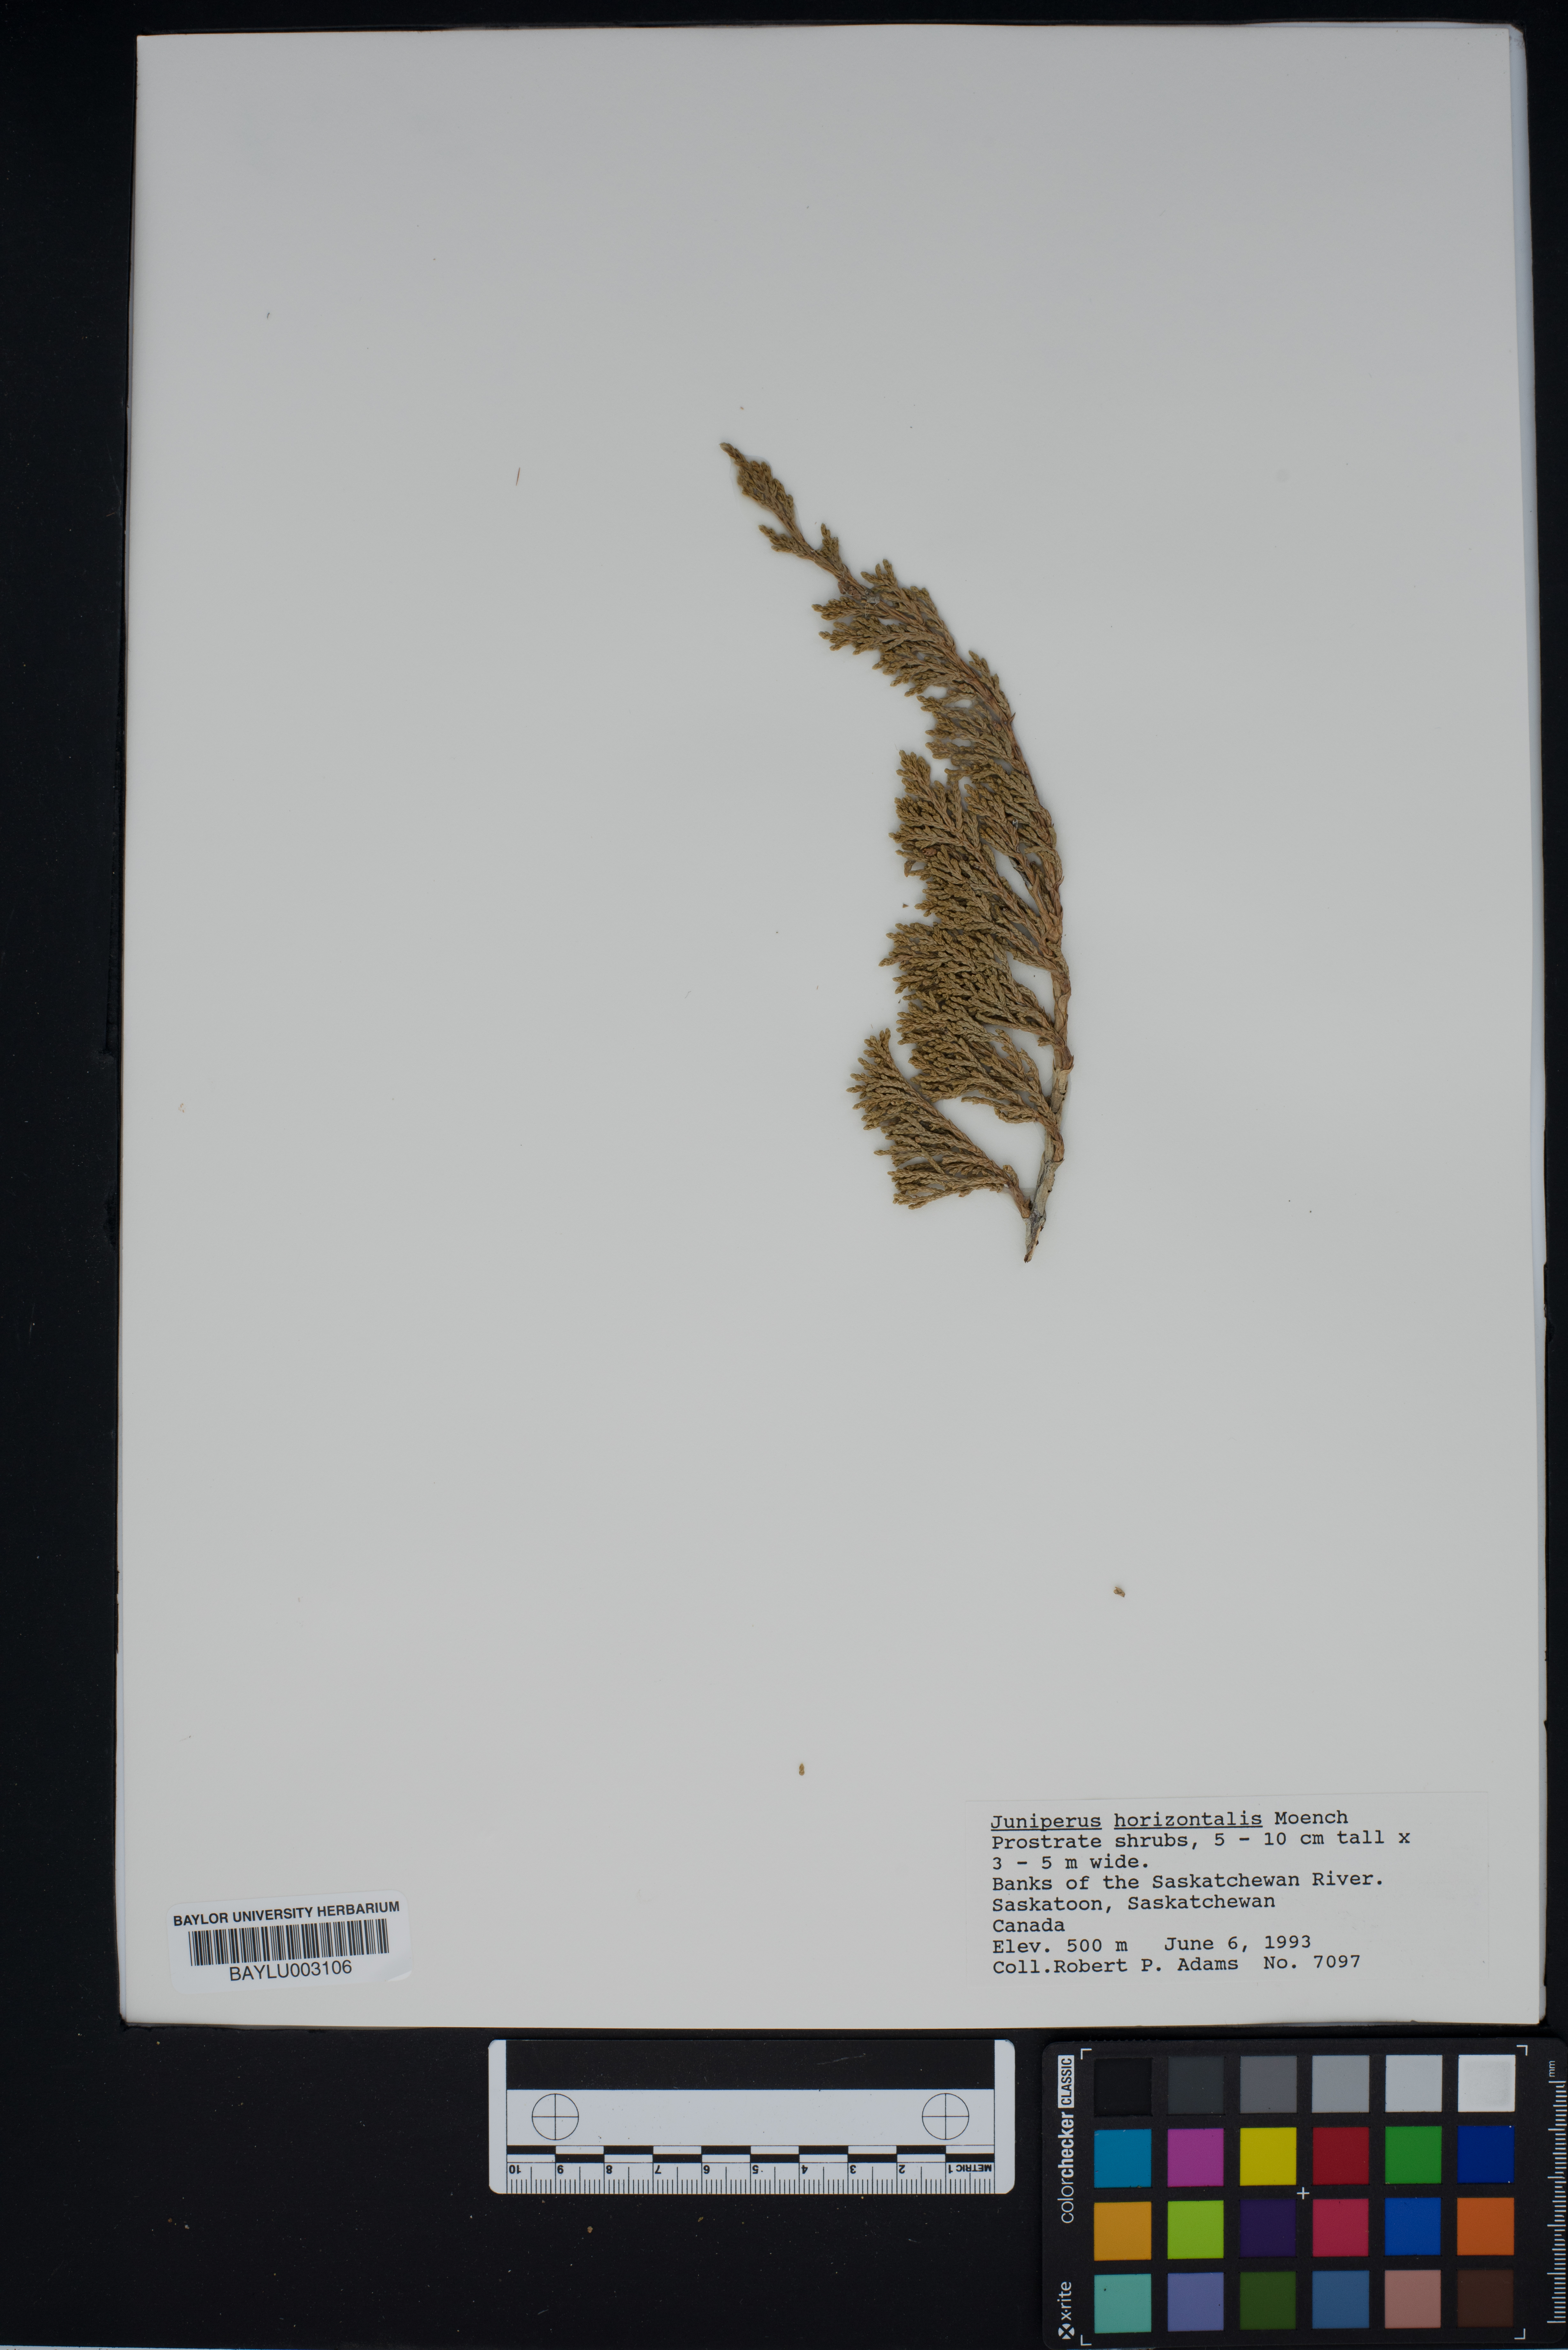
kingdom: Plantae
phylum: Tracheophyta
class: Pinopsida
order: Pinales
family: Cupressaceae
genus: Juniperus
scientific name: Juniperus horizontalis
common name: Creeping juniper
